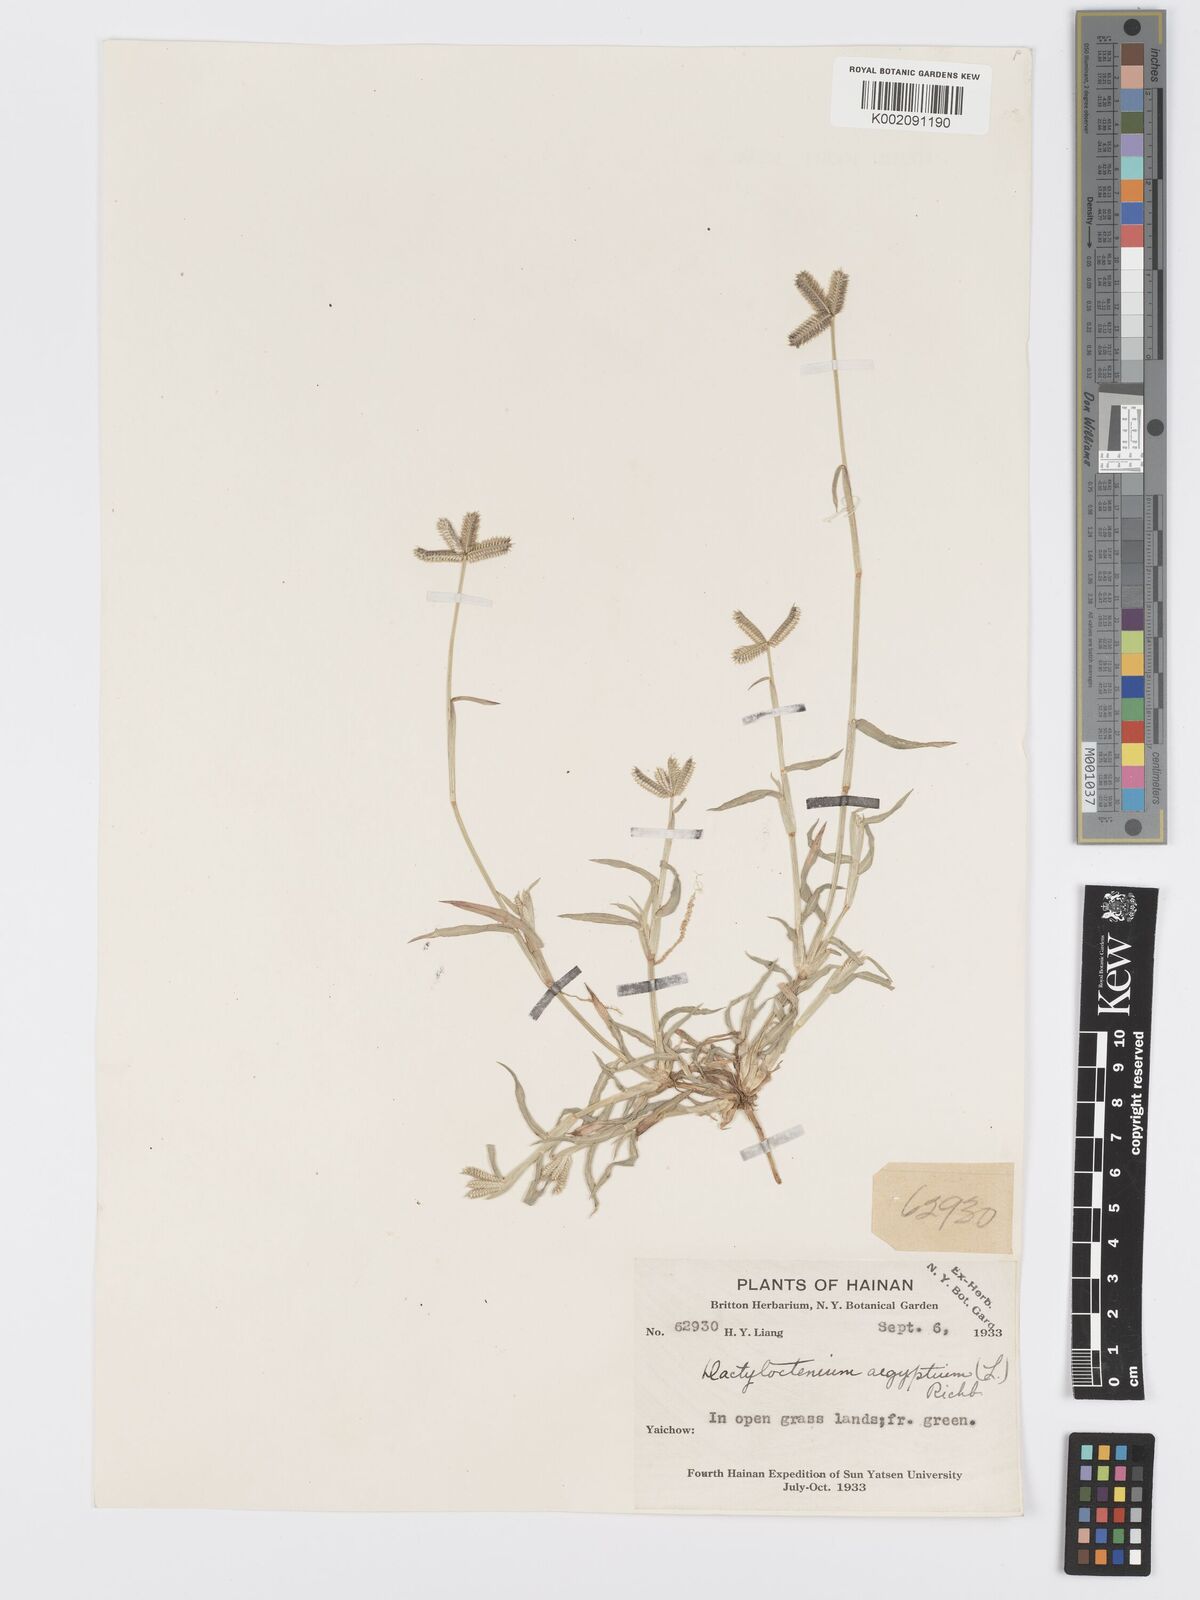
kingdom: Plantae
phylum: Tracheophyta
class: Liliopsida
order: Poales
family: Poaceae
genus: Dactyloctenium
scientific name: Dactyloctenium aegyptium
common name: Egyptian grass
